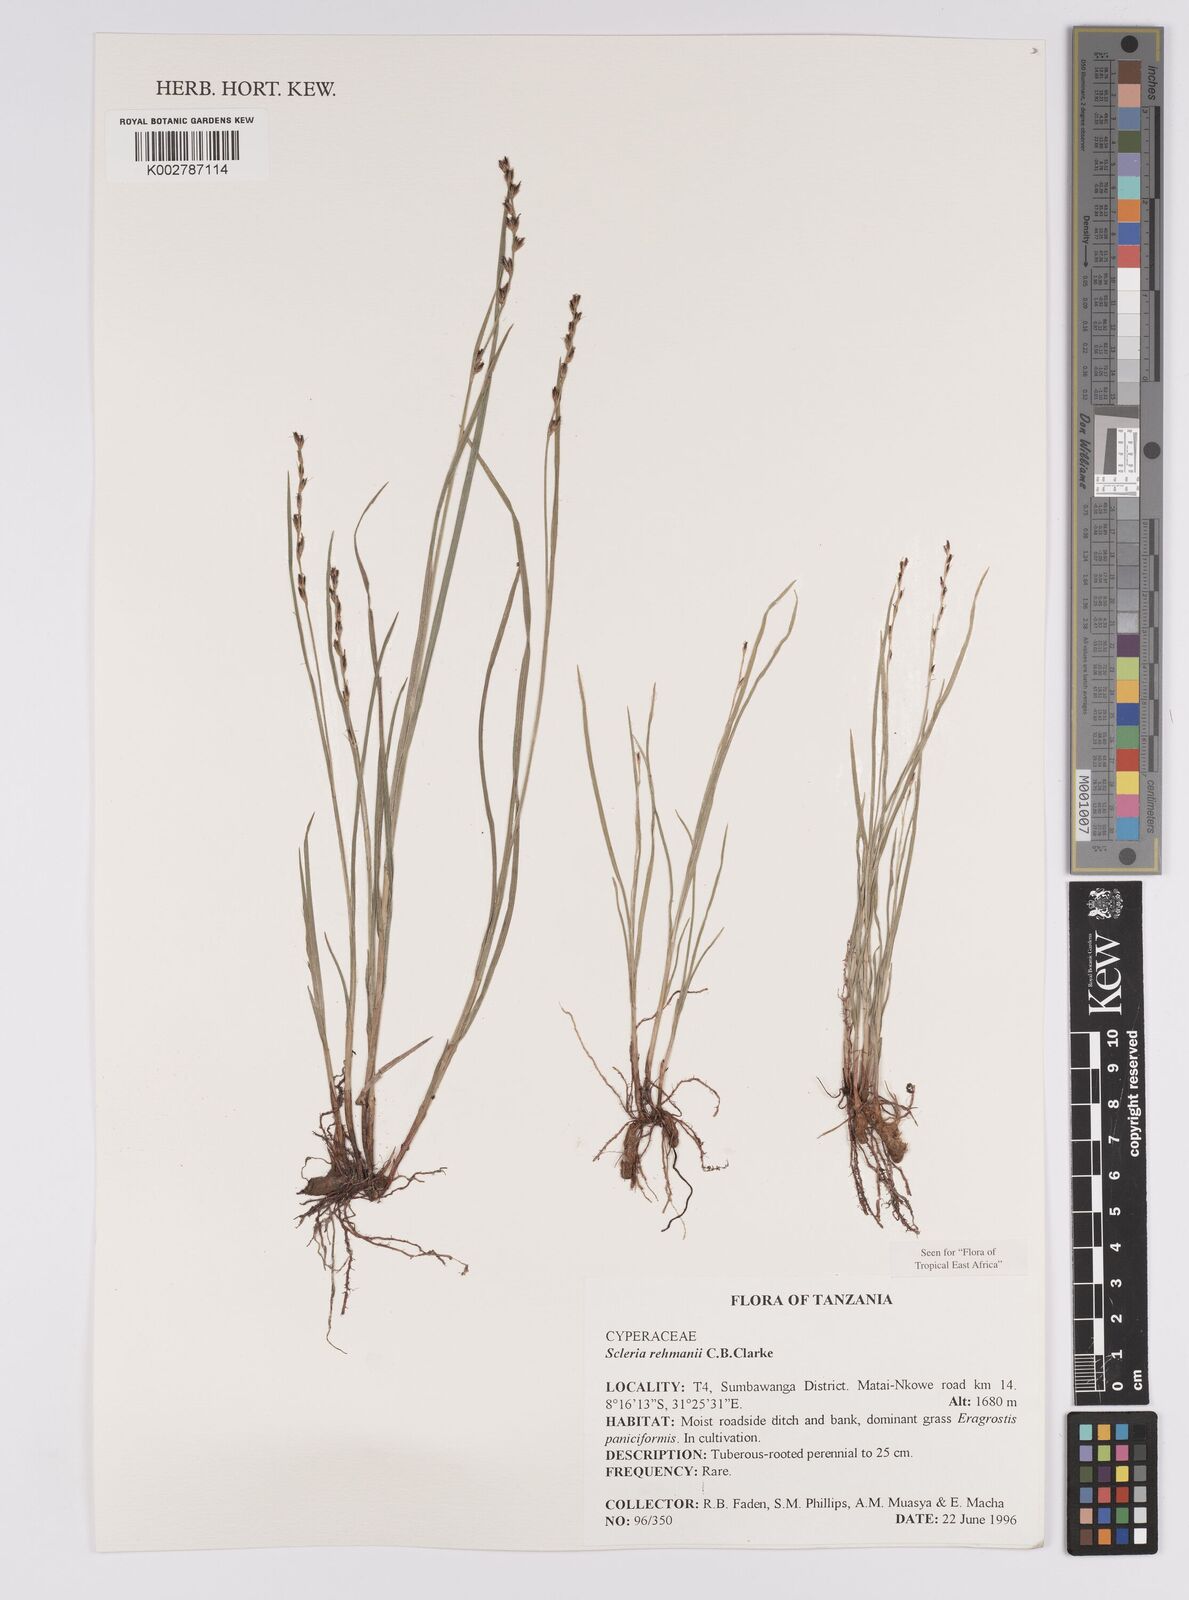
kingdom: Plantae
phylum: Tracheophyta
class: Liliopsida
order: Poales
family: Cyperaceae
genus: Scleria
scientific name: Scleria rehmannii
